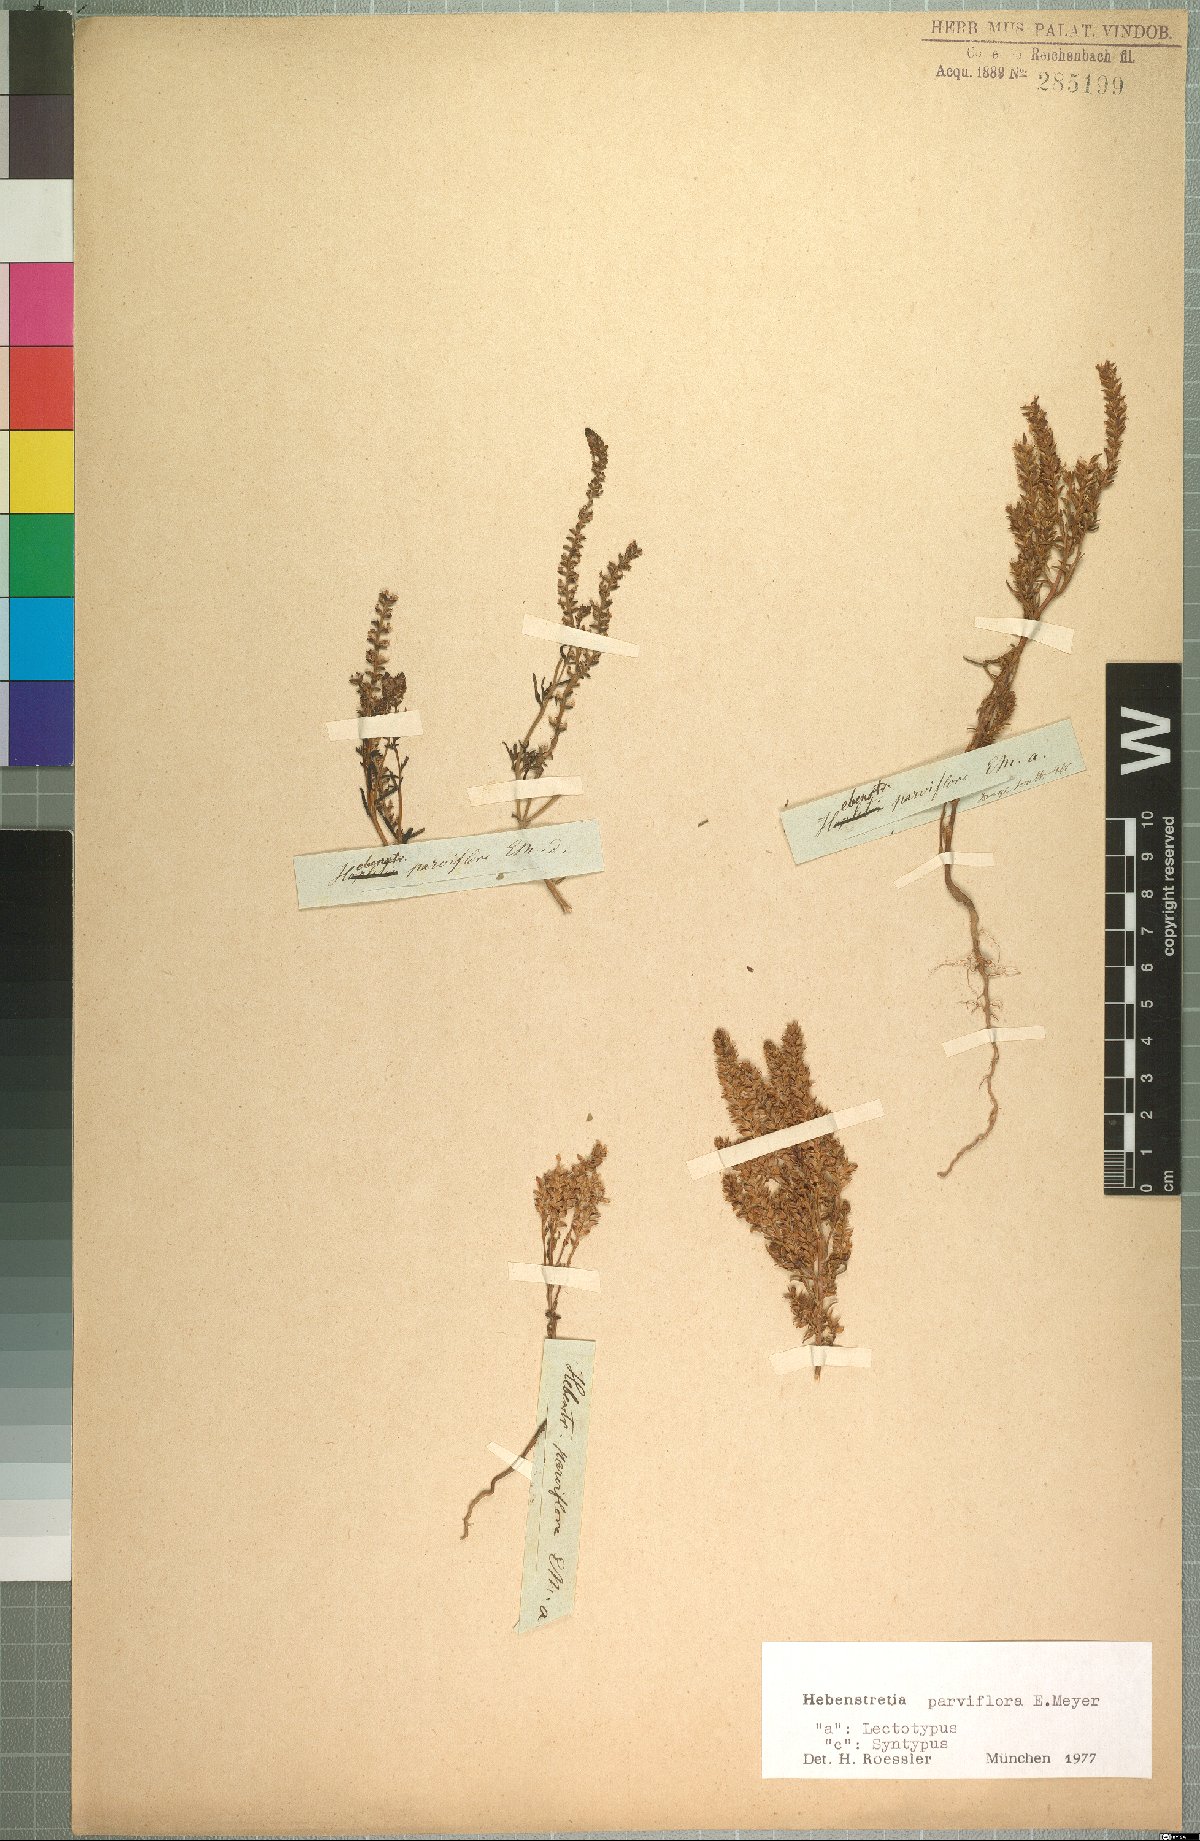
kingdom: Plantae
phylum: Tracheophyta
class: Magnoliopsida
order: Lamiales
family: Scrophulariaceae
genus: Hebenstretia
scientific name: Hebenstretia parviflora
